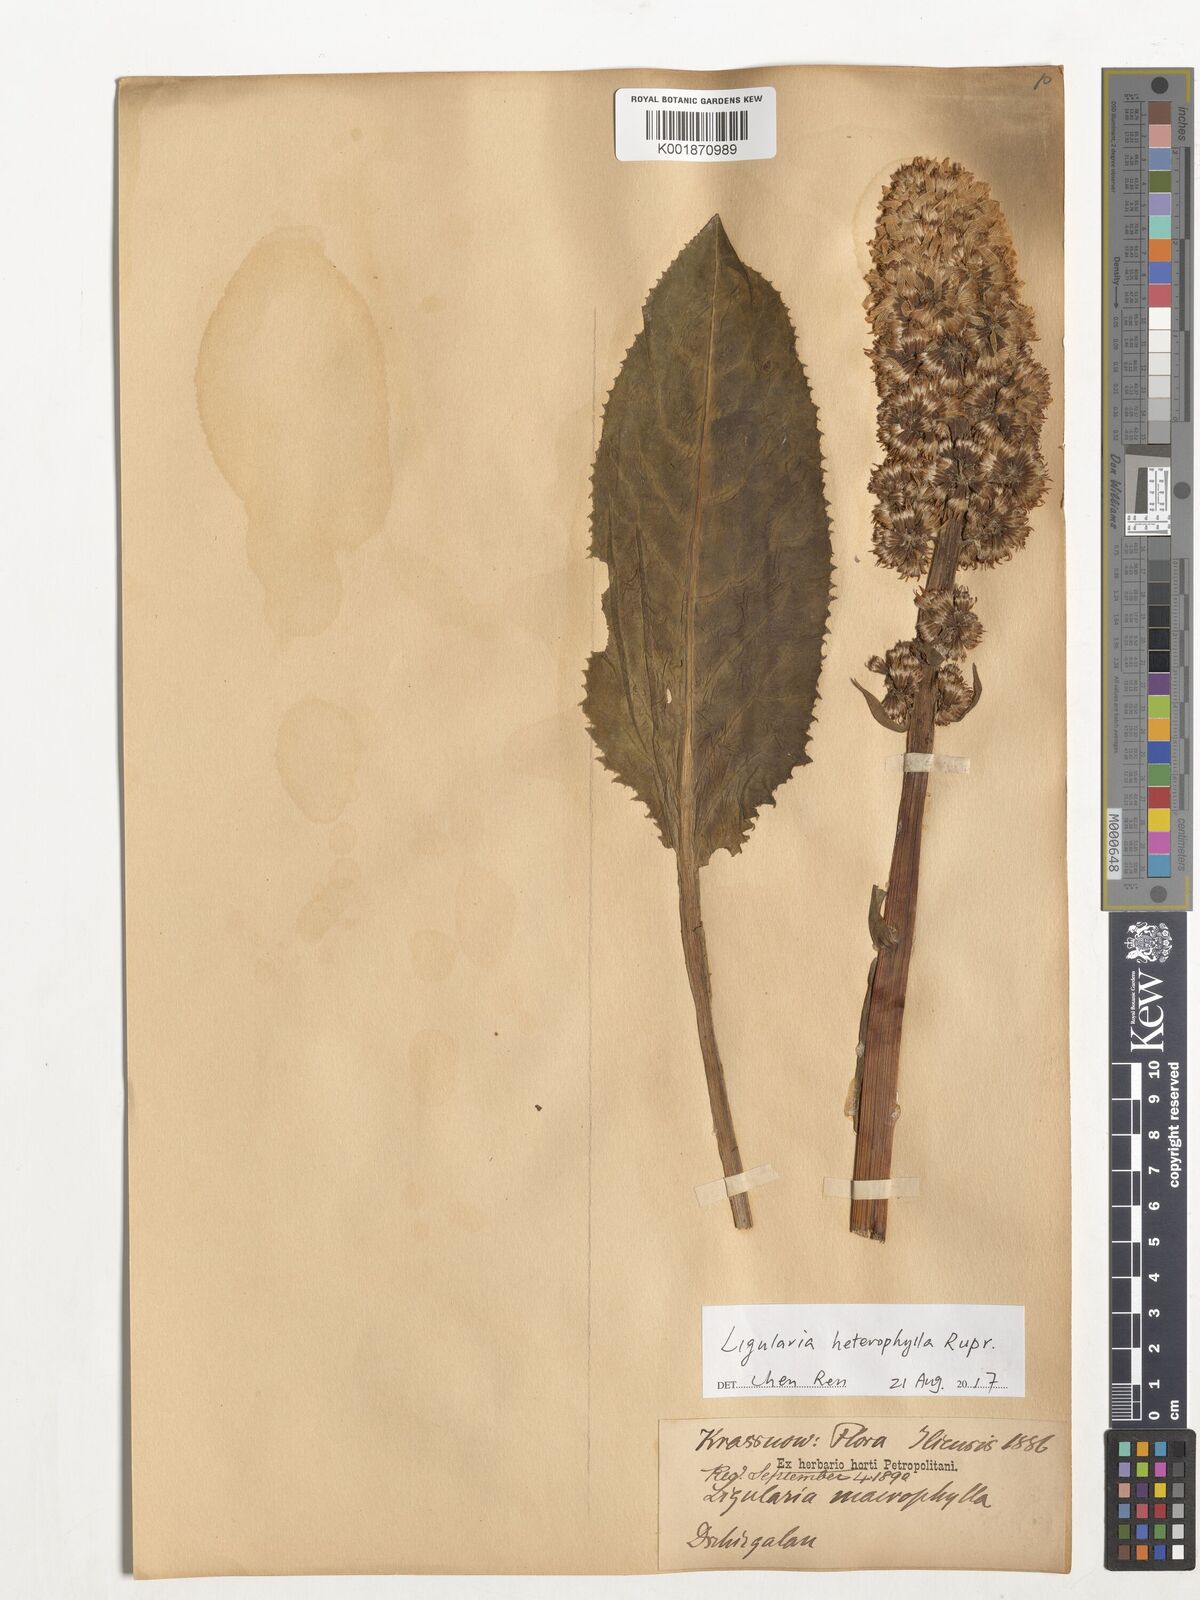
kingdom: Plantae
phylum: Tracheophyta
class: Magnoliopsida
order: Asterales
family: Asteraceae
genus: Ligularia
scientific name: Ligularia heterophylla
